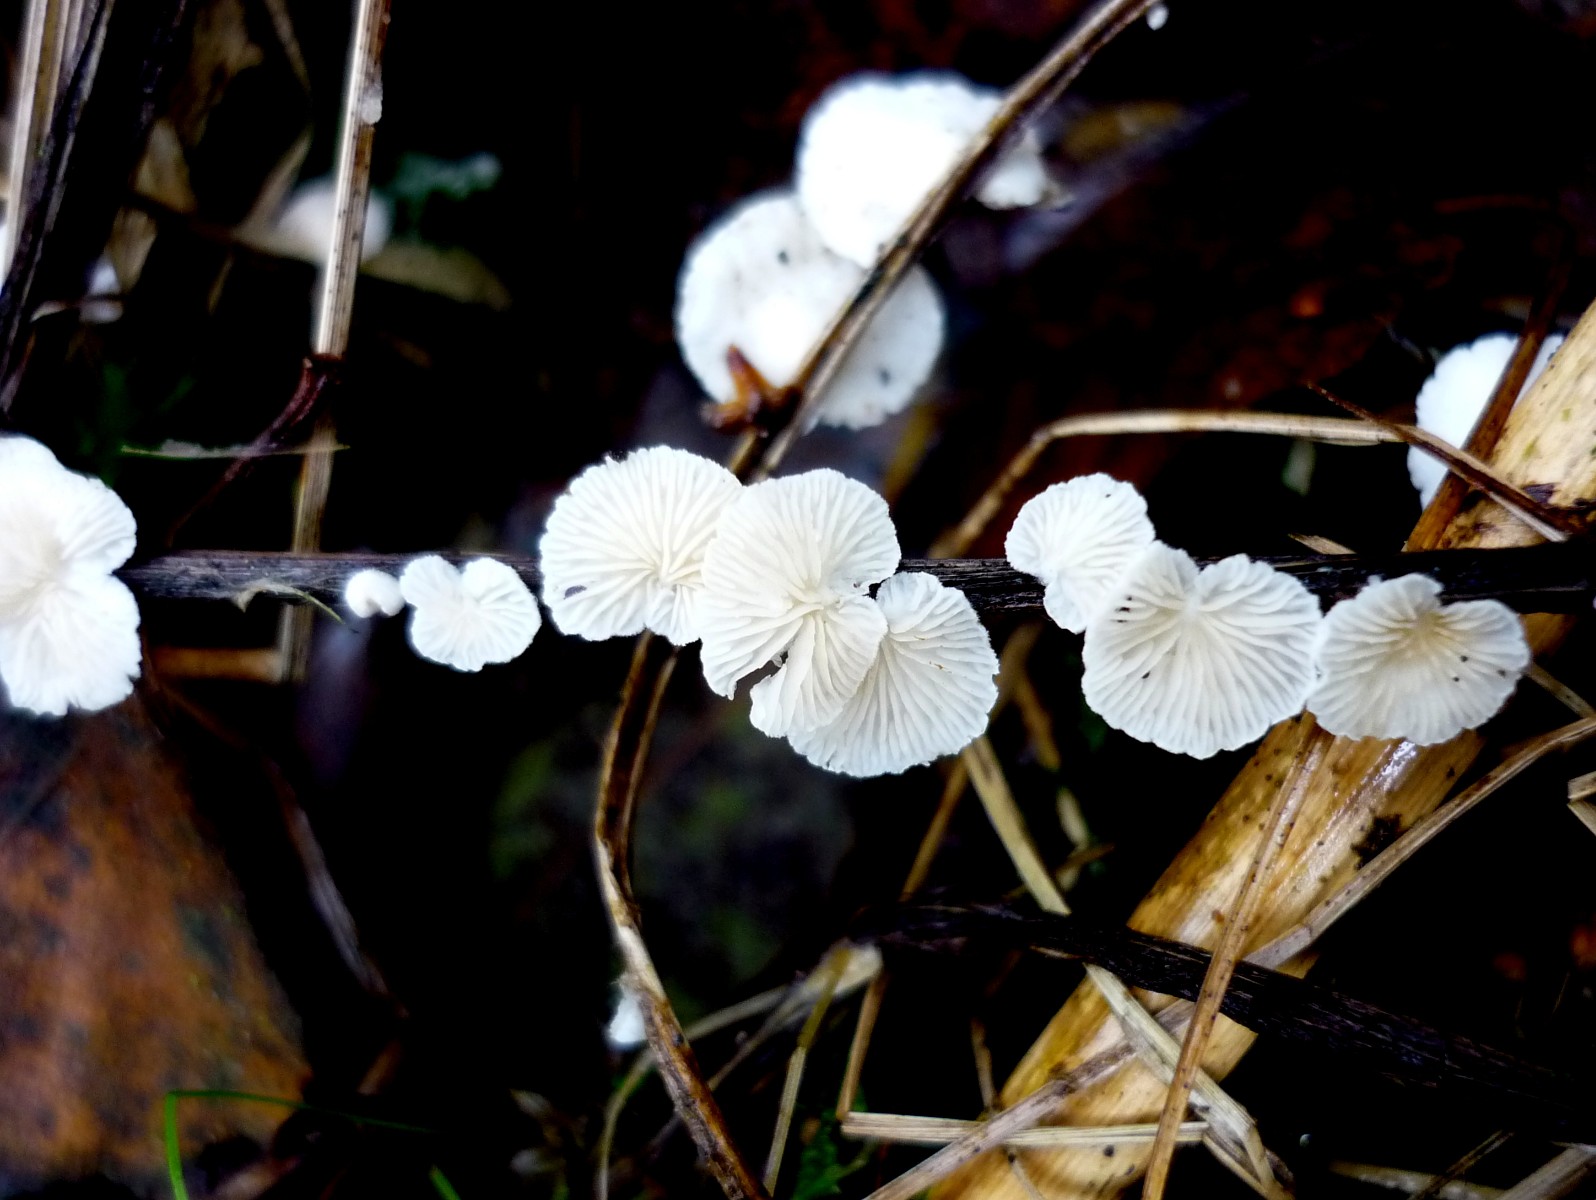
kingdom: Fungi
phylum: Basidiomycota
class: Agaricomycetes
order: Agaricales
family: Crepidotaceae
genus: Crepidotus
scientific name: Crepidotus epibryus
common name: førne-muslingesvamp
